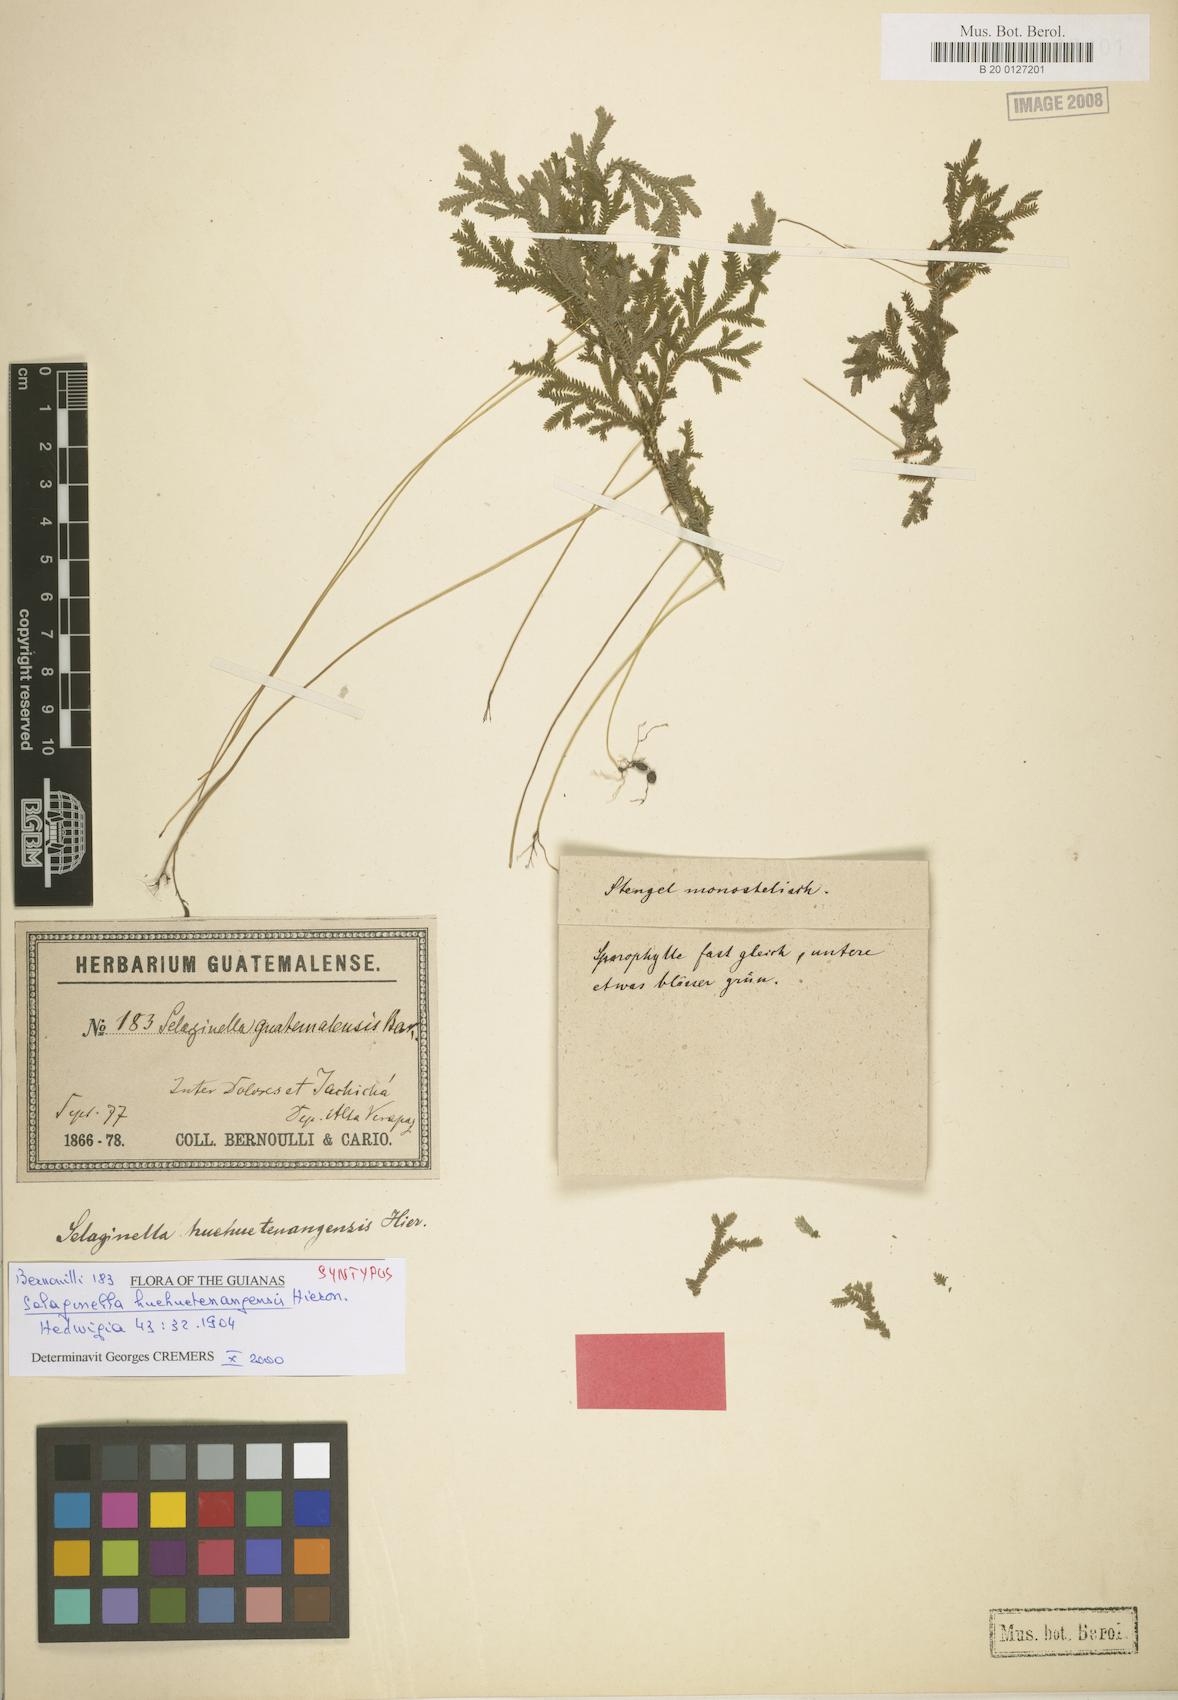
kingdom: Plantae
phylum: Tracheophyta
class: Lycopodiopsida
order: Selaginellales
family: Selaginellaceae
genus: Selaginella
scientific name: Selaginella huehuetenangensis
